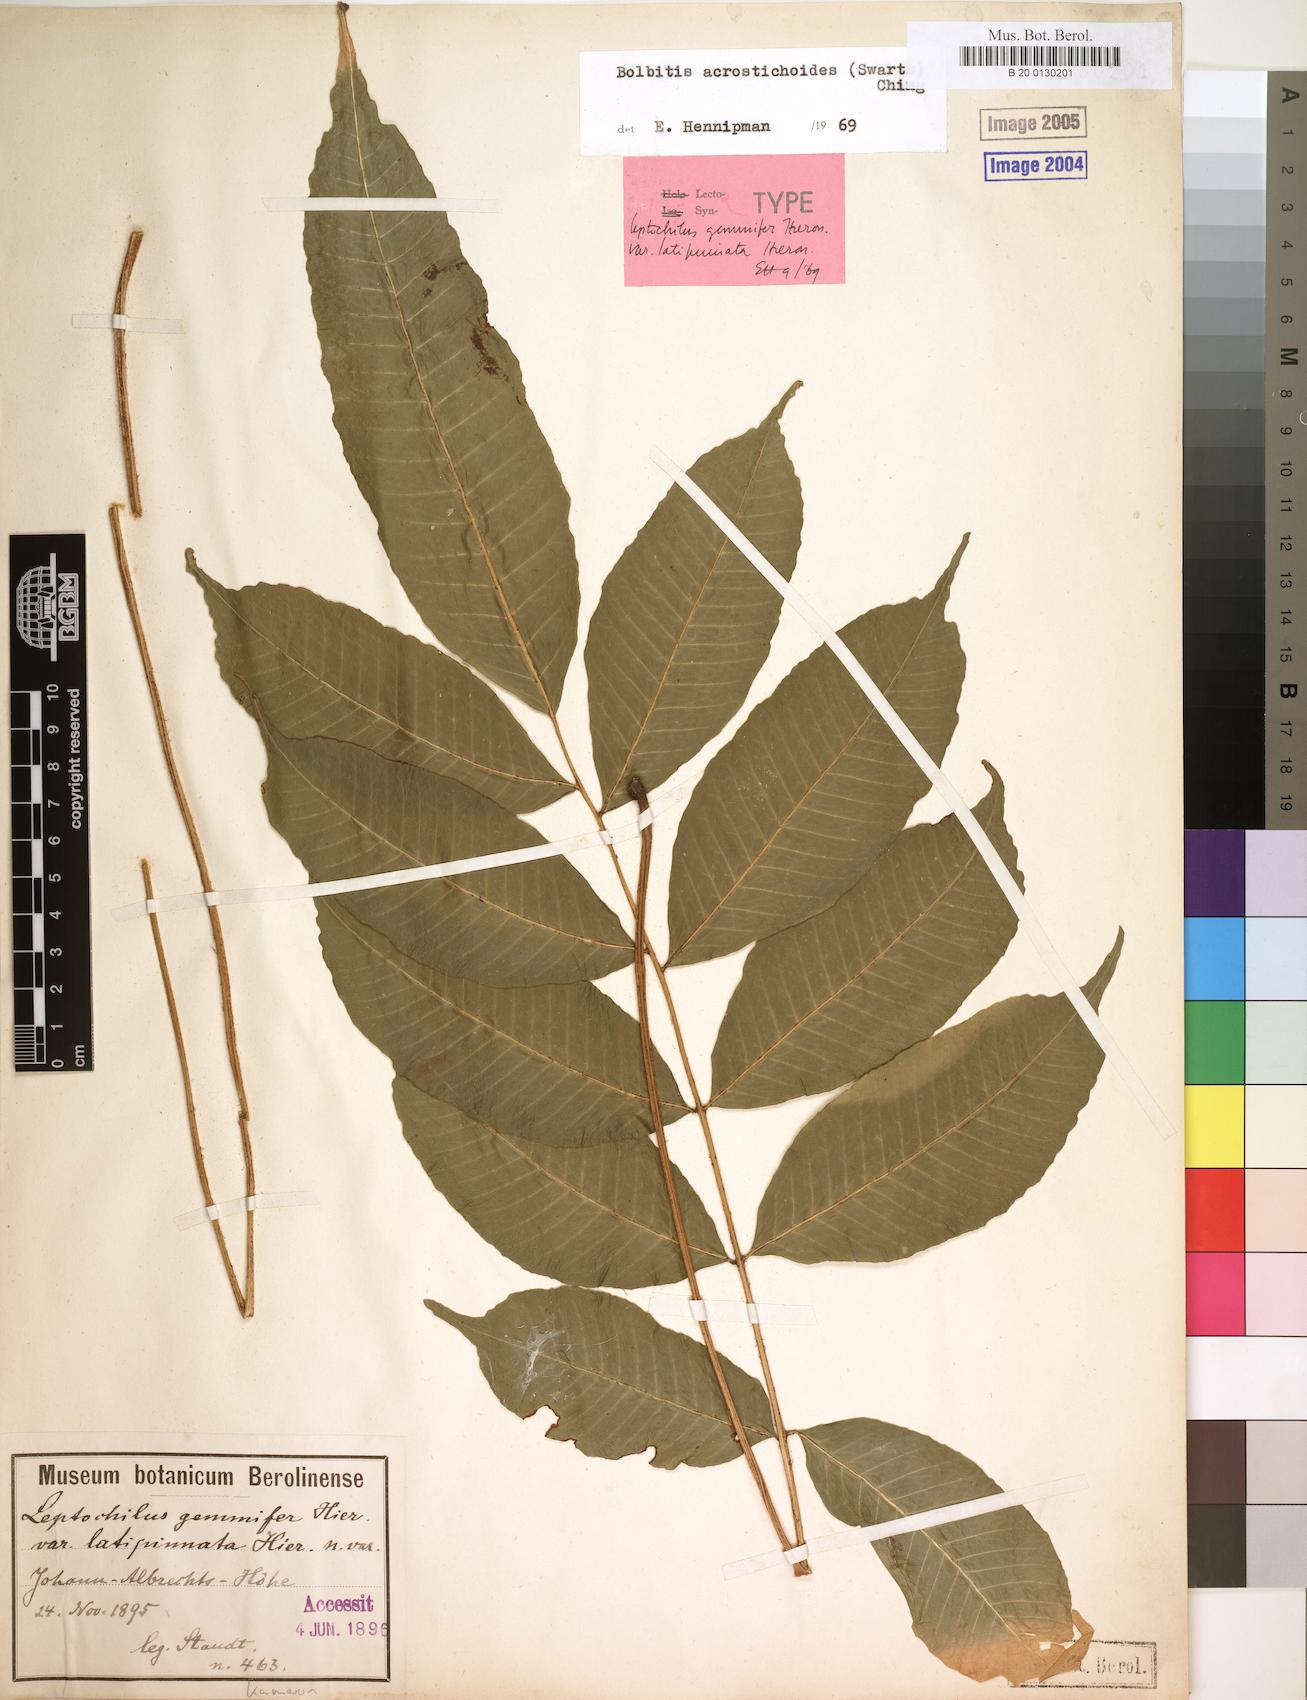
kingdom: Plantae
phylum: Tracheophyta
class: Polypodiopsida
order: Polypodiales
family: Dryopteridaceae
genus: Bolbitis
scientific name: Bolbitis gemmifer
